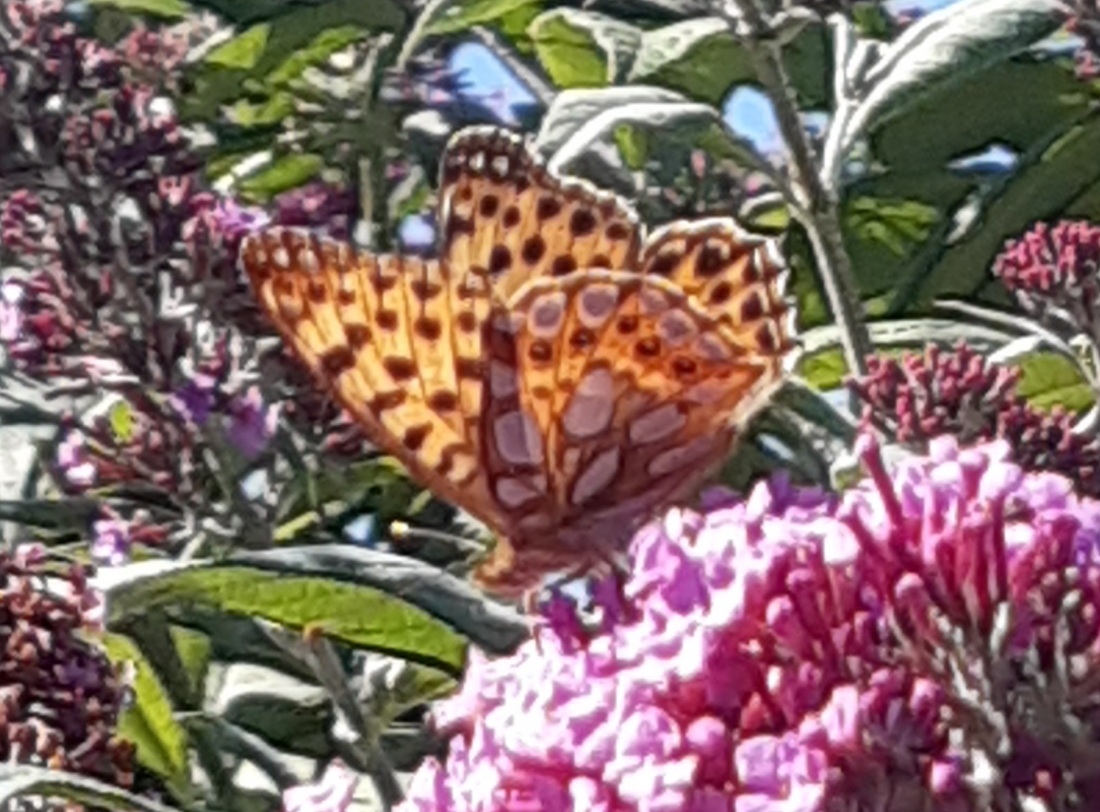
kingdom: Animalia
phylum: Arthropoda
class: Insecta
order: Lepidoptera
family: Nymphalidae
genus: Issoria
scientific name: Issoria lathonia
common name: Storplettet perlemorsommerfugl
